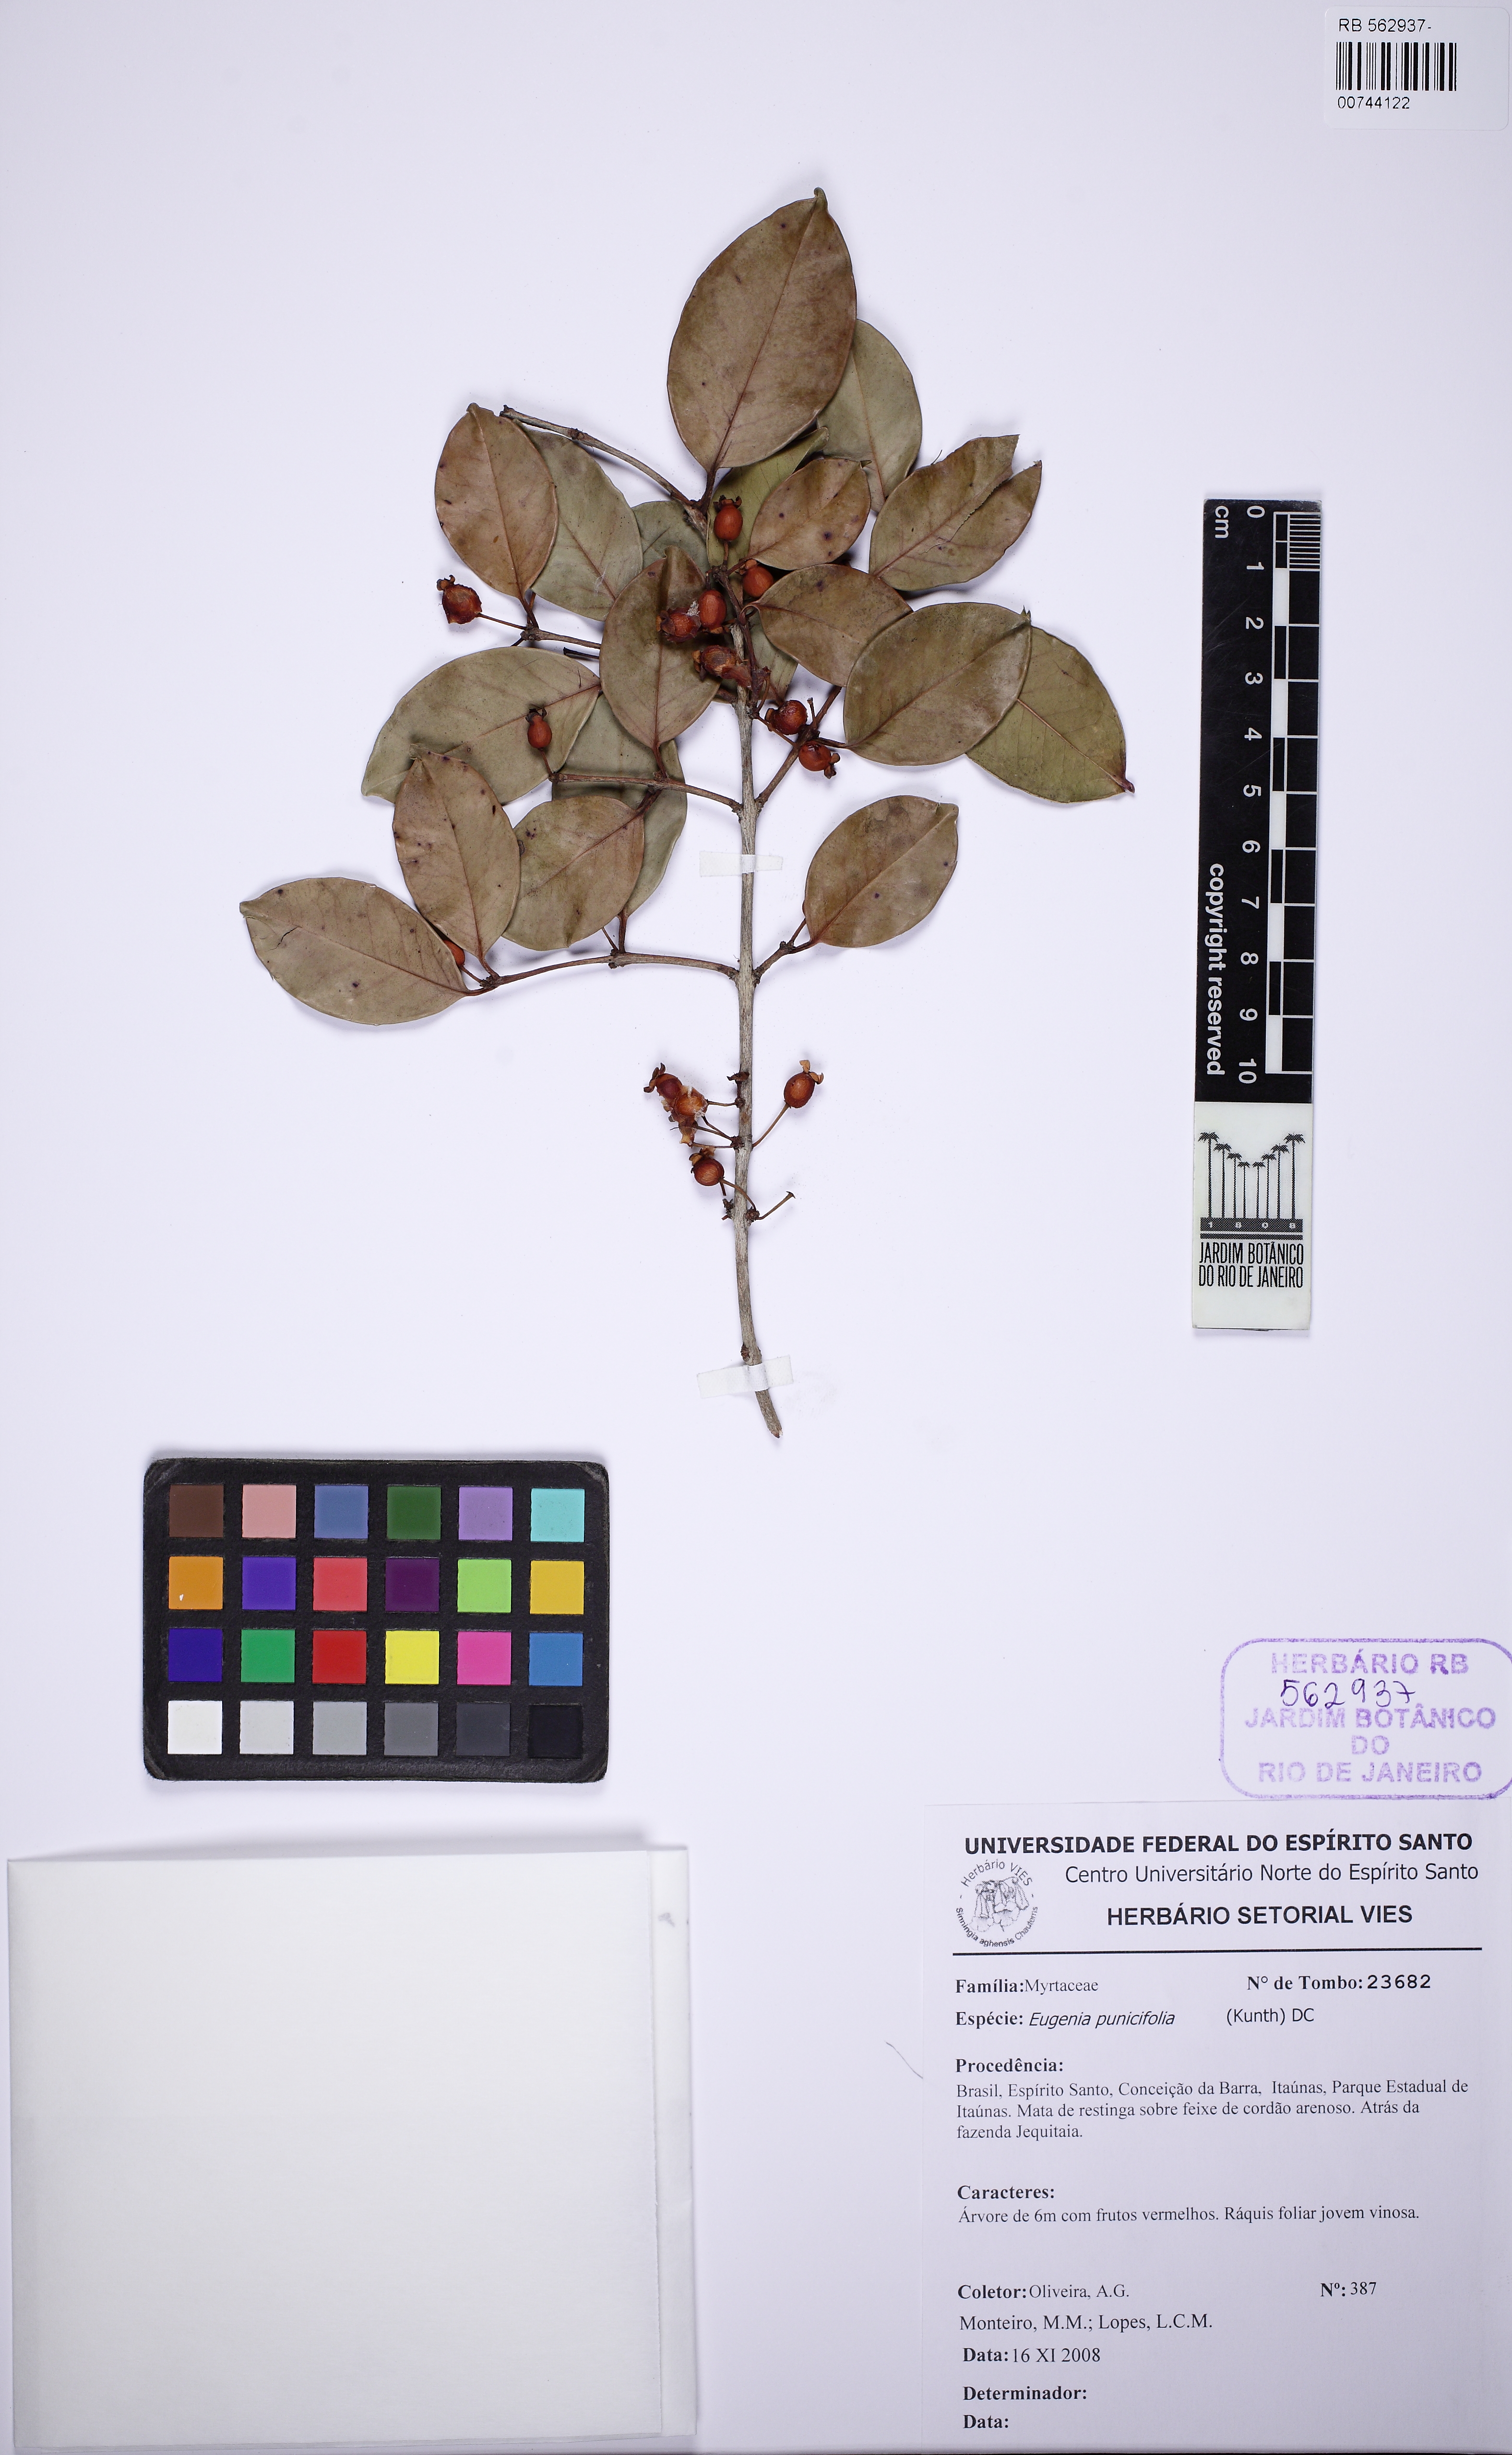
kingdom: Plantae
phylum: Tracheophyta
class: Magnoliopsida
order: Myrtales
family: Myrtaceae
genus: Eugenia
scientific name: Eugenia punicifolia
